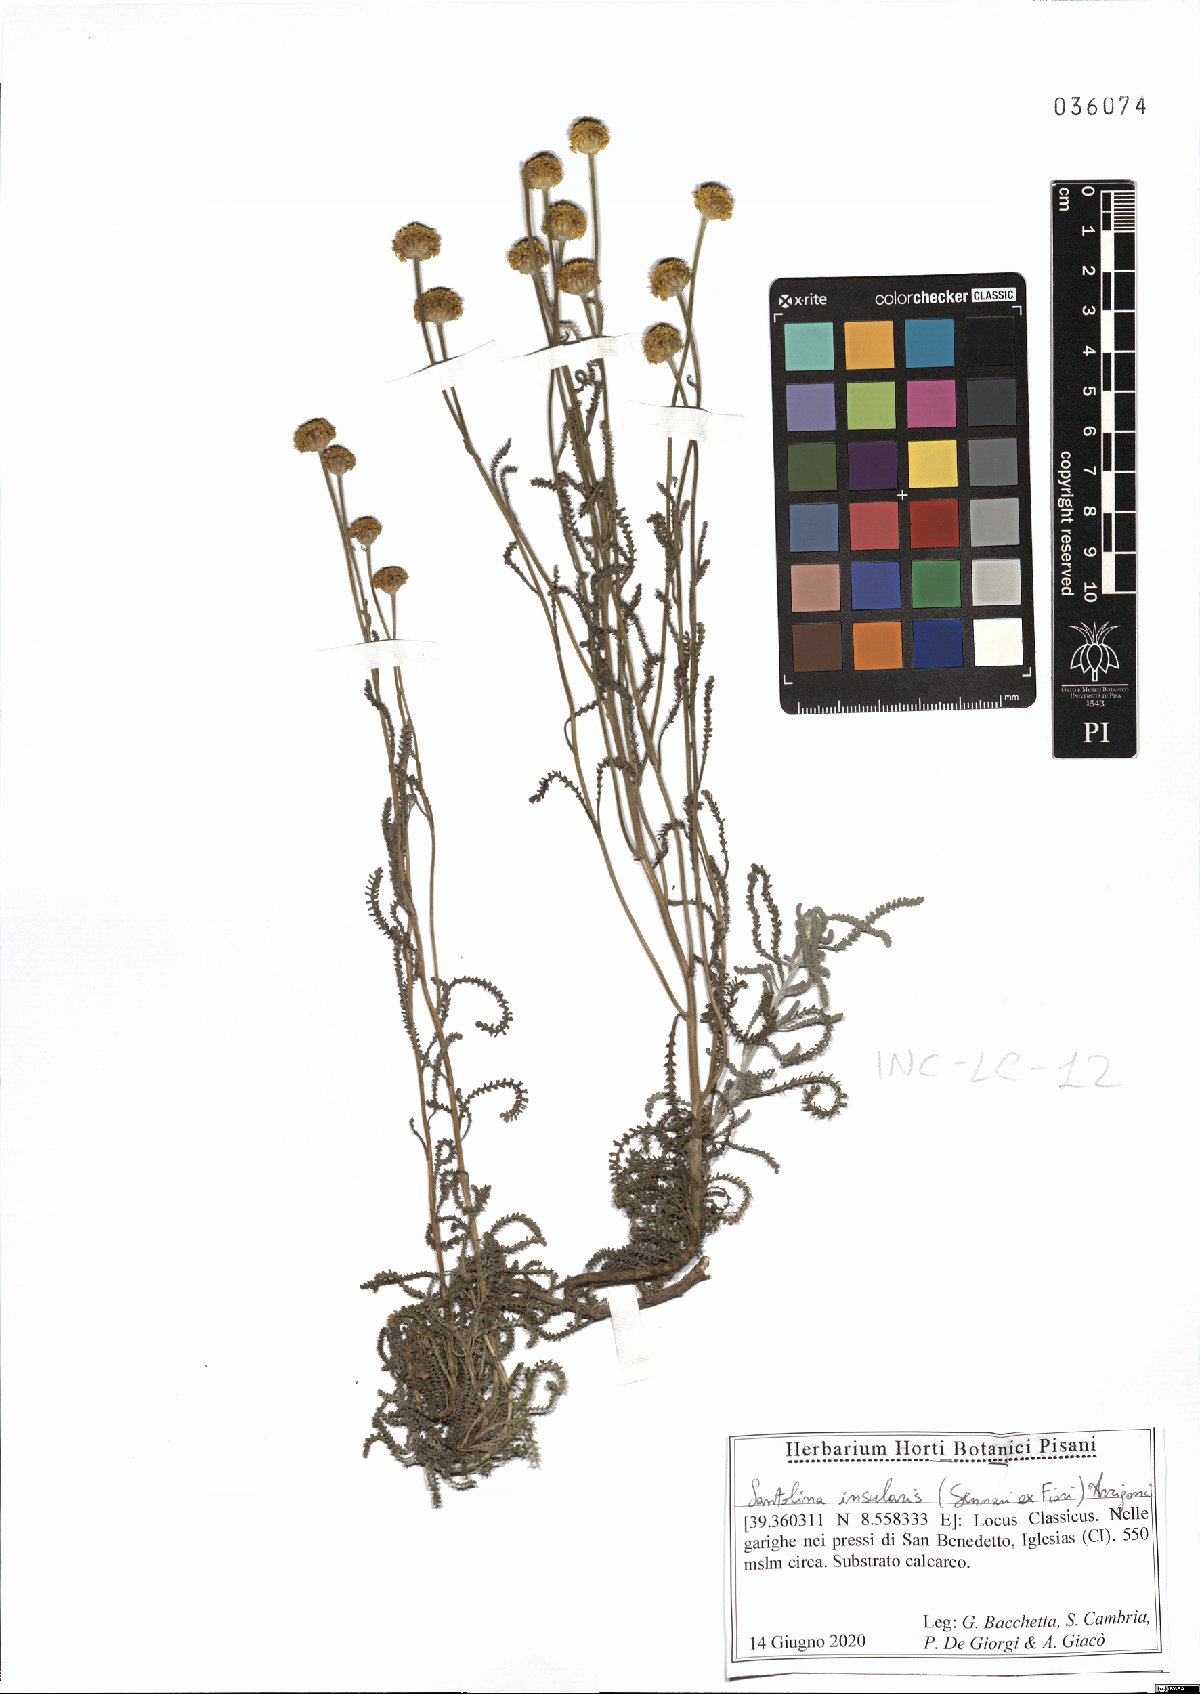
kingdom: Plantae
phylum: Tracheophyta
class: Magnoliopsida
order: Asterales
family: Asteraceae
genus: Santolina
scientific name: Santolina insularis
